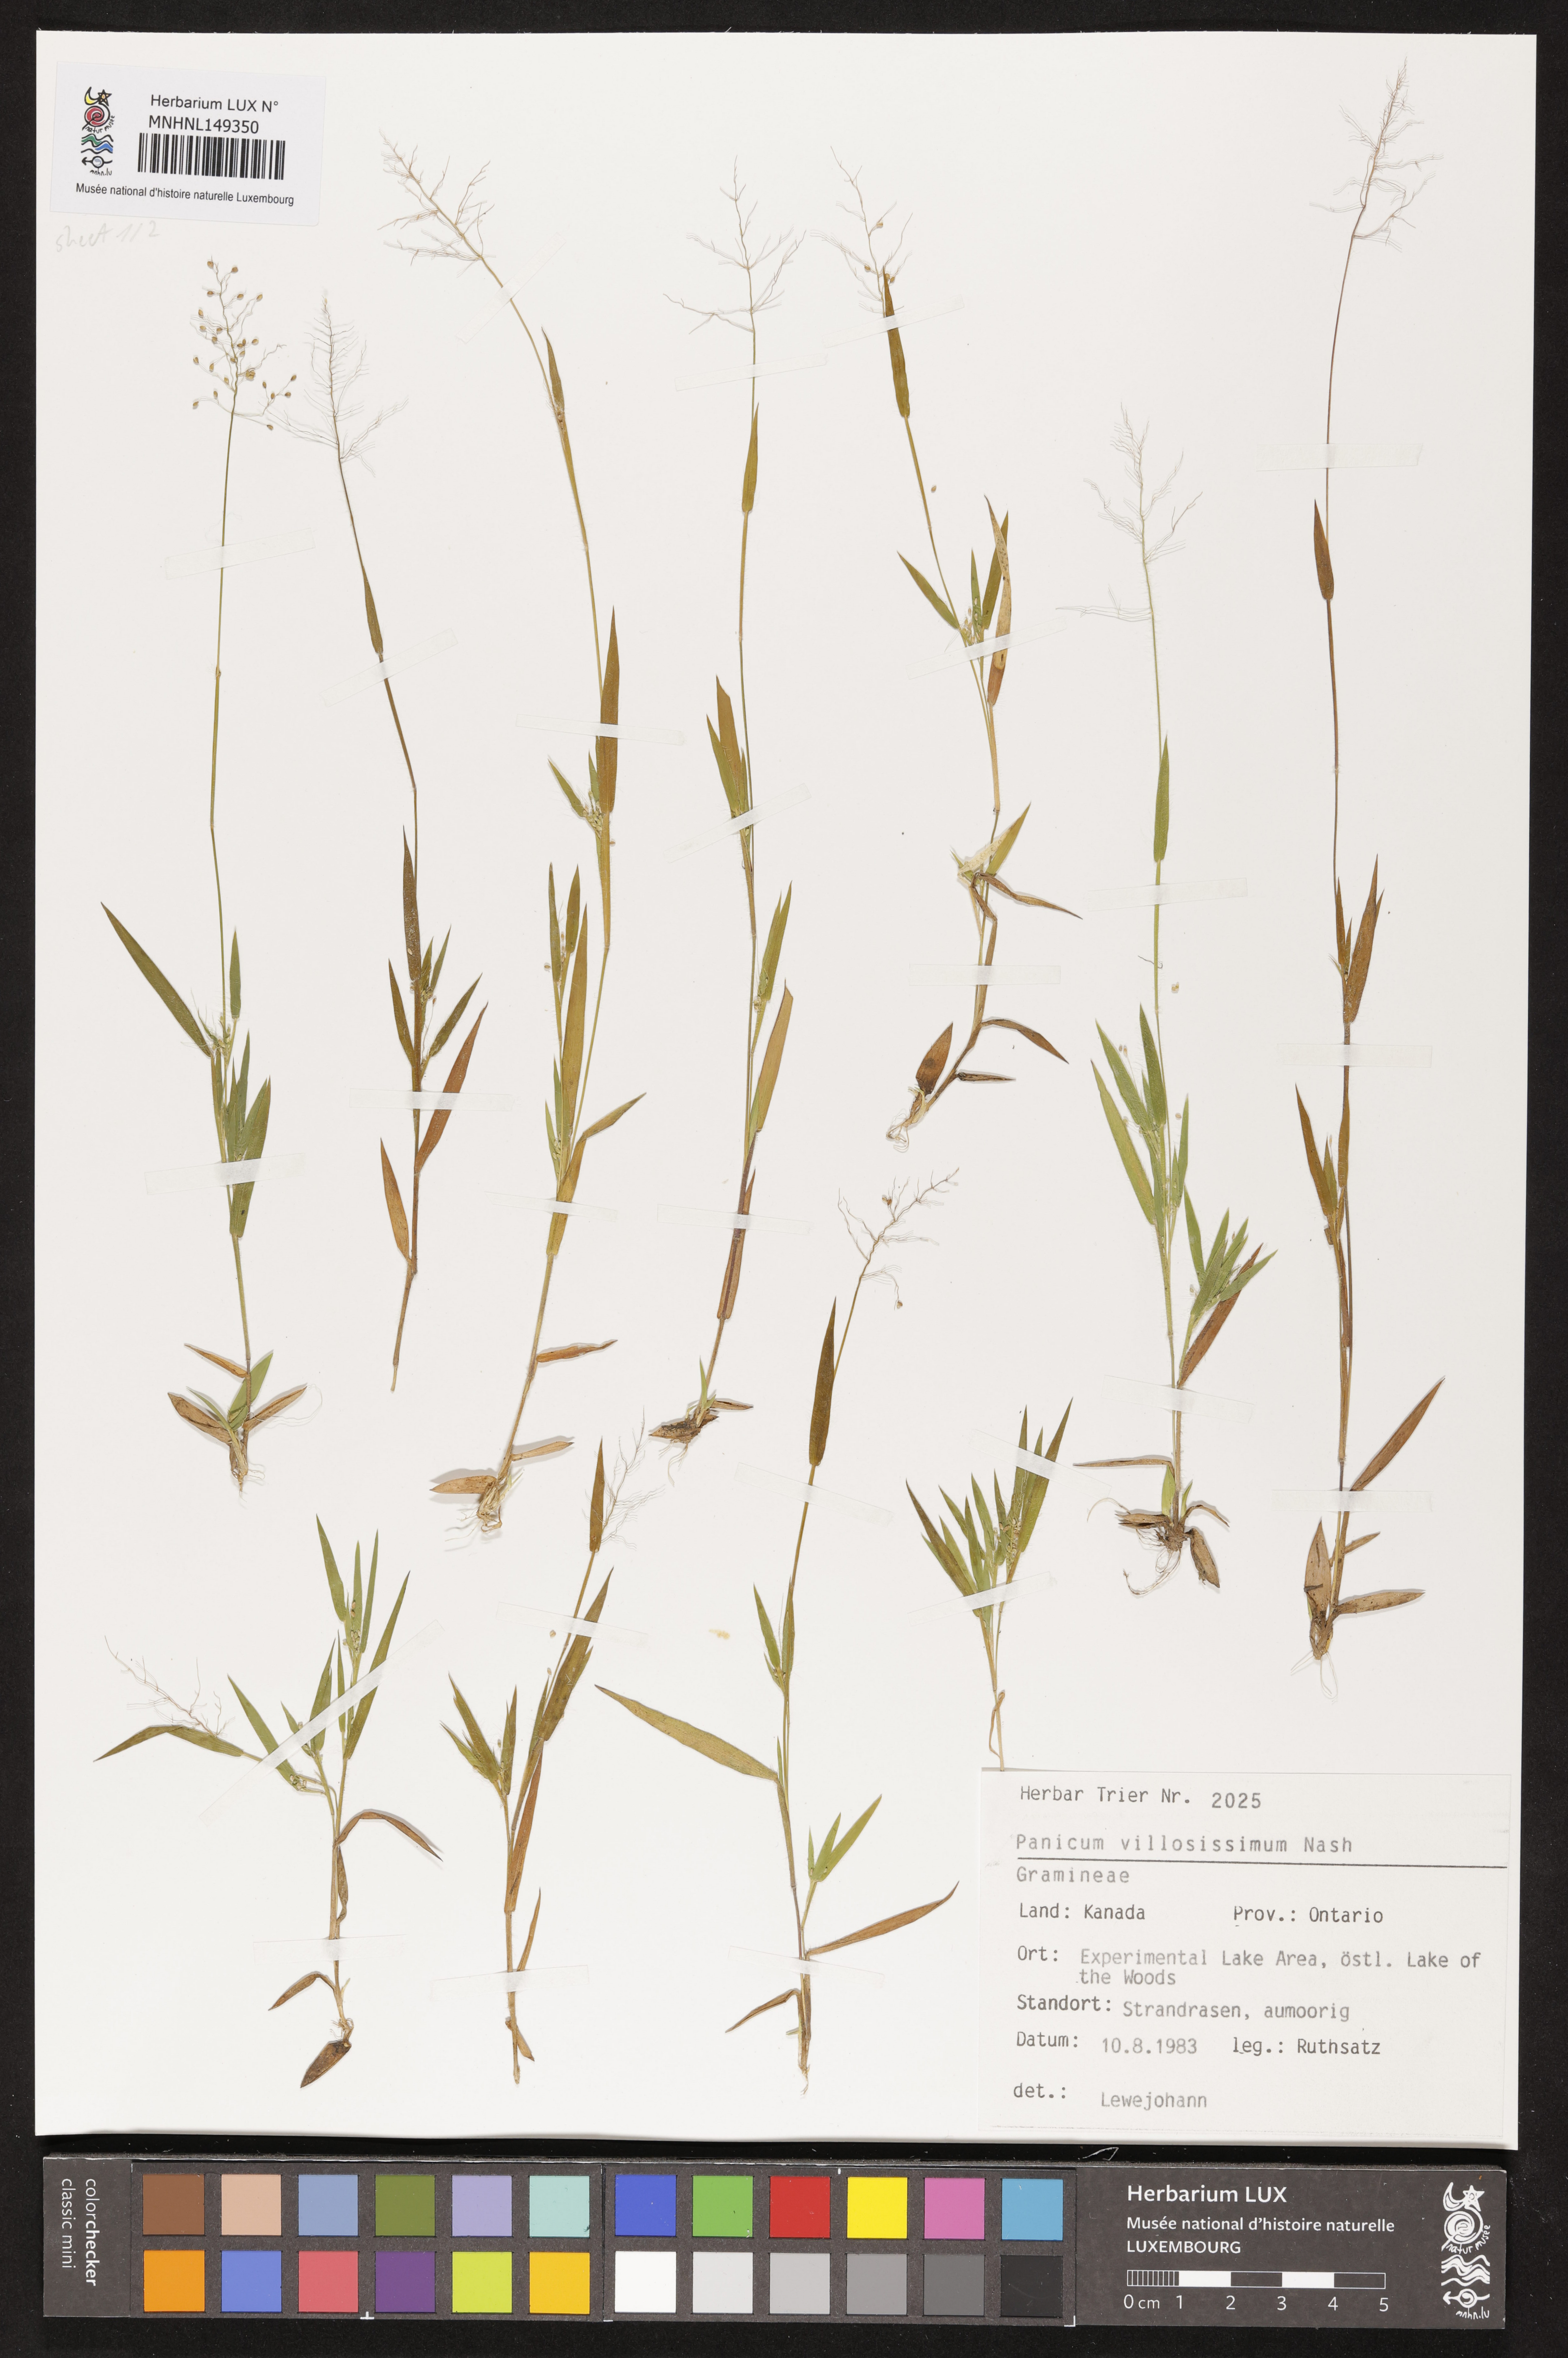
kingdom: Plantae
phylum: Tracheophyta
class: Liliopsida
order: Poales
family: Poaceae
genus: Dichanthelium
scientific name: Dichanthelium villosissimum
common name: White-haired panicgrass
